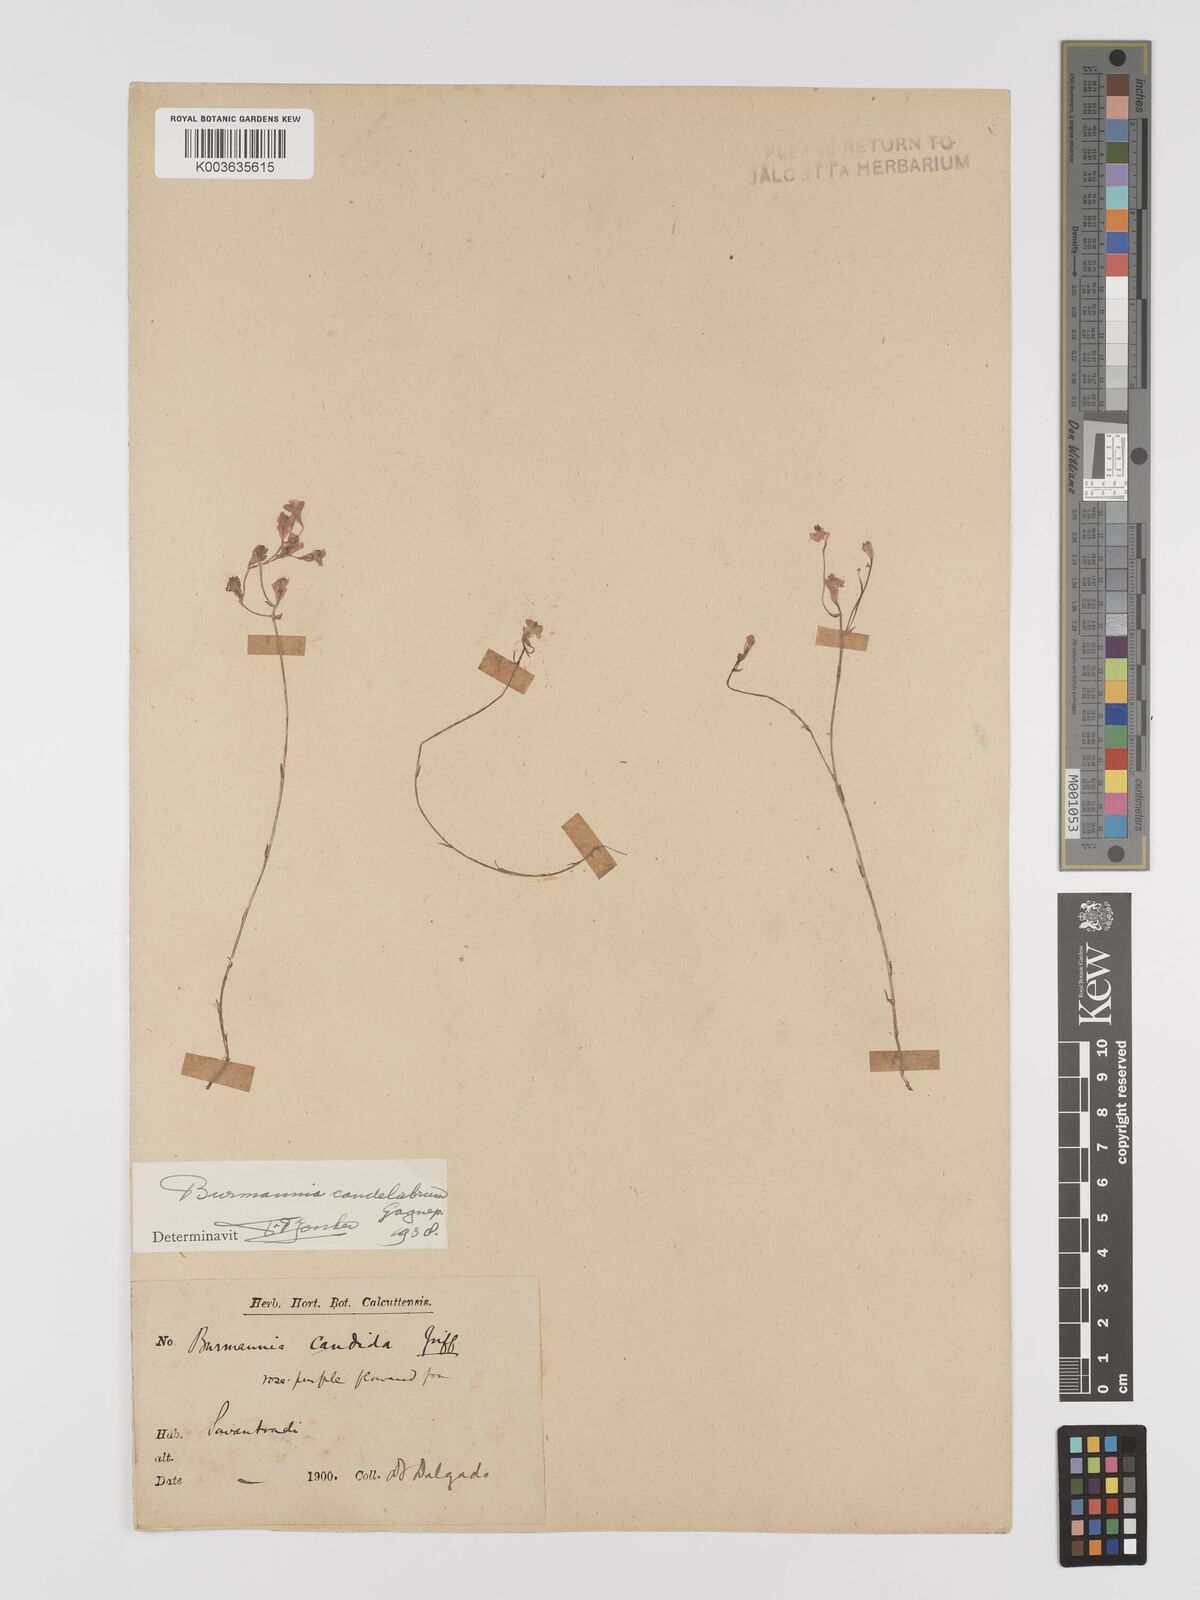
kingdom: Plantae
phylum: Tracheophyta
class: Liliopsida
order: Dioscoreales
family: Burmanniaceae
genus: Burmannia
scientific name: Burmannia candelabrum
